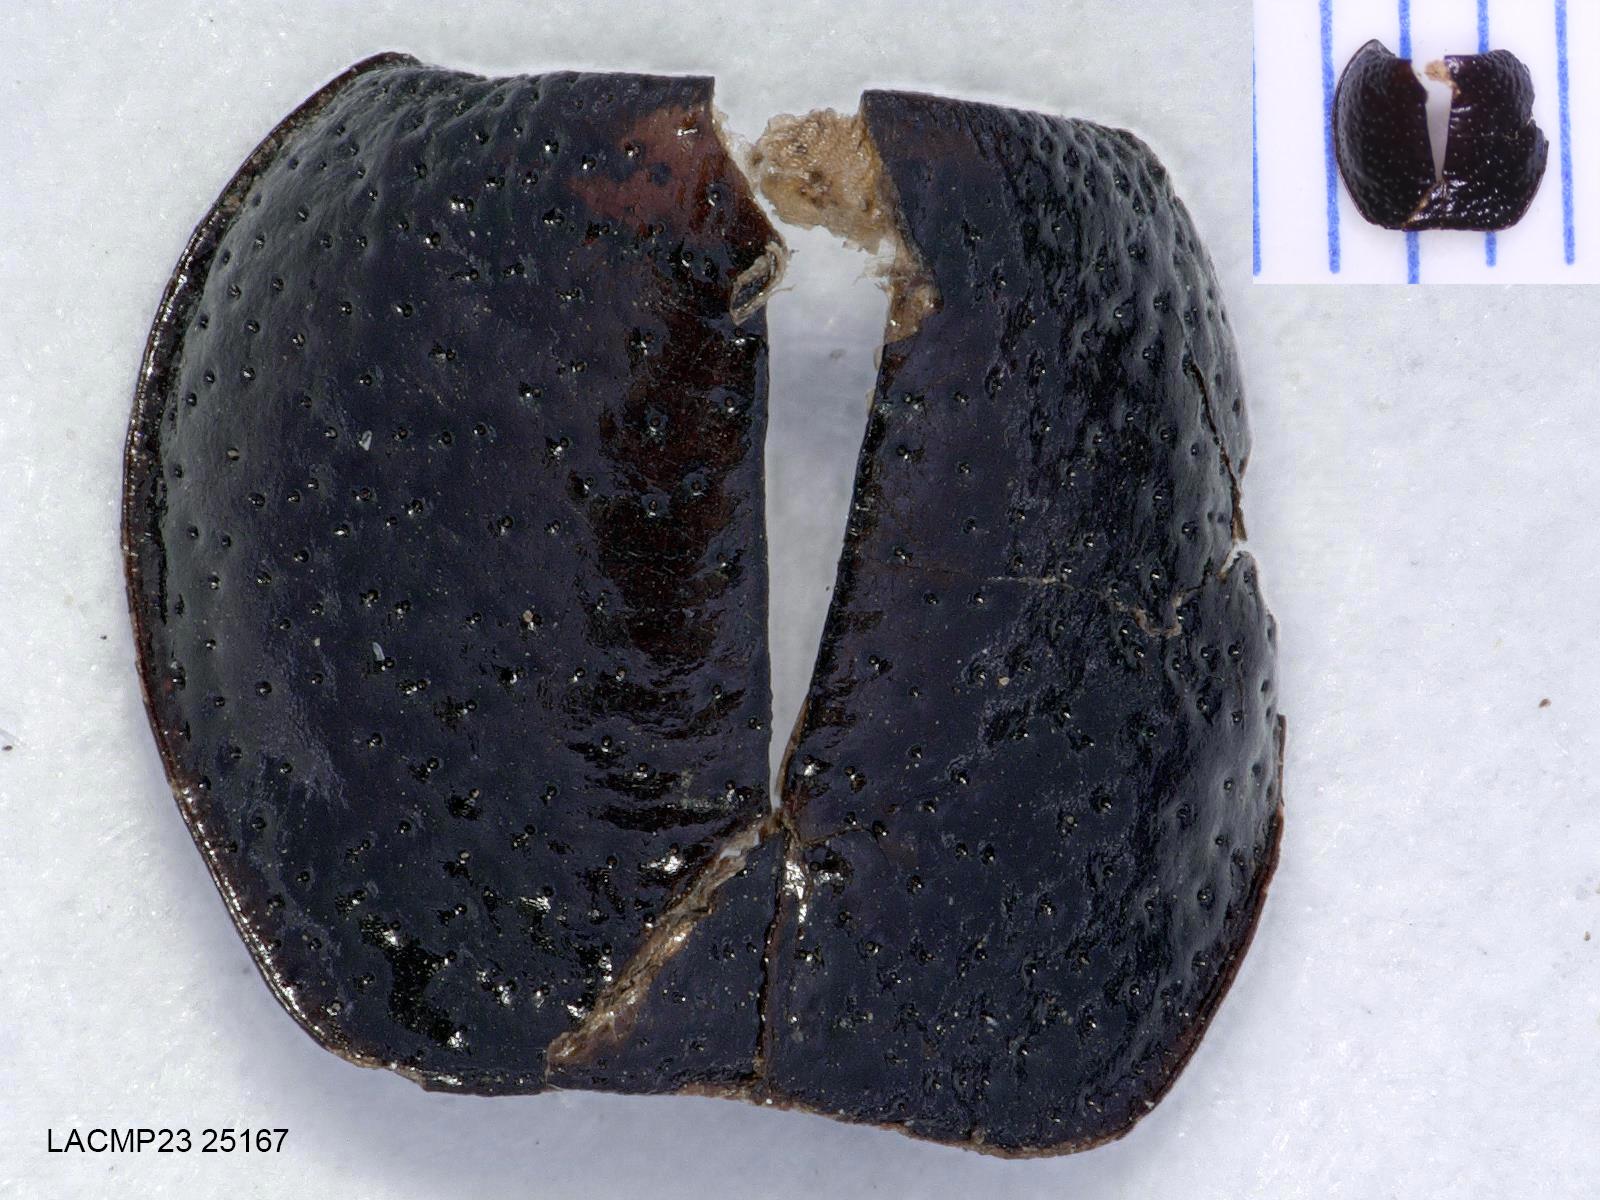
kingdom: Animalia
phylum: Arthropoda
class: Insecta
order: Coleoptera
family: Carabidae
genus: Dicheirus
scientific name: Dicheirus dilatatus
